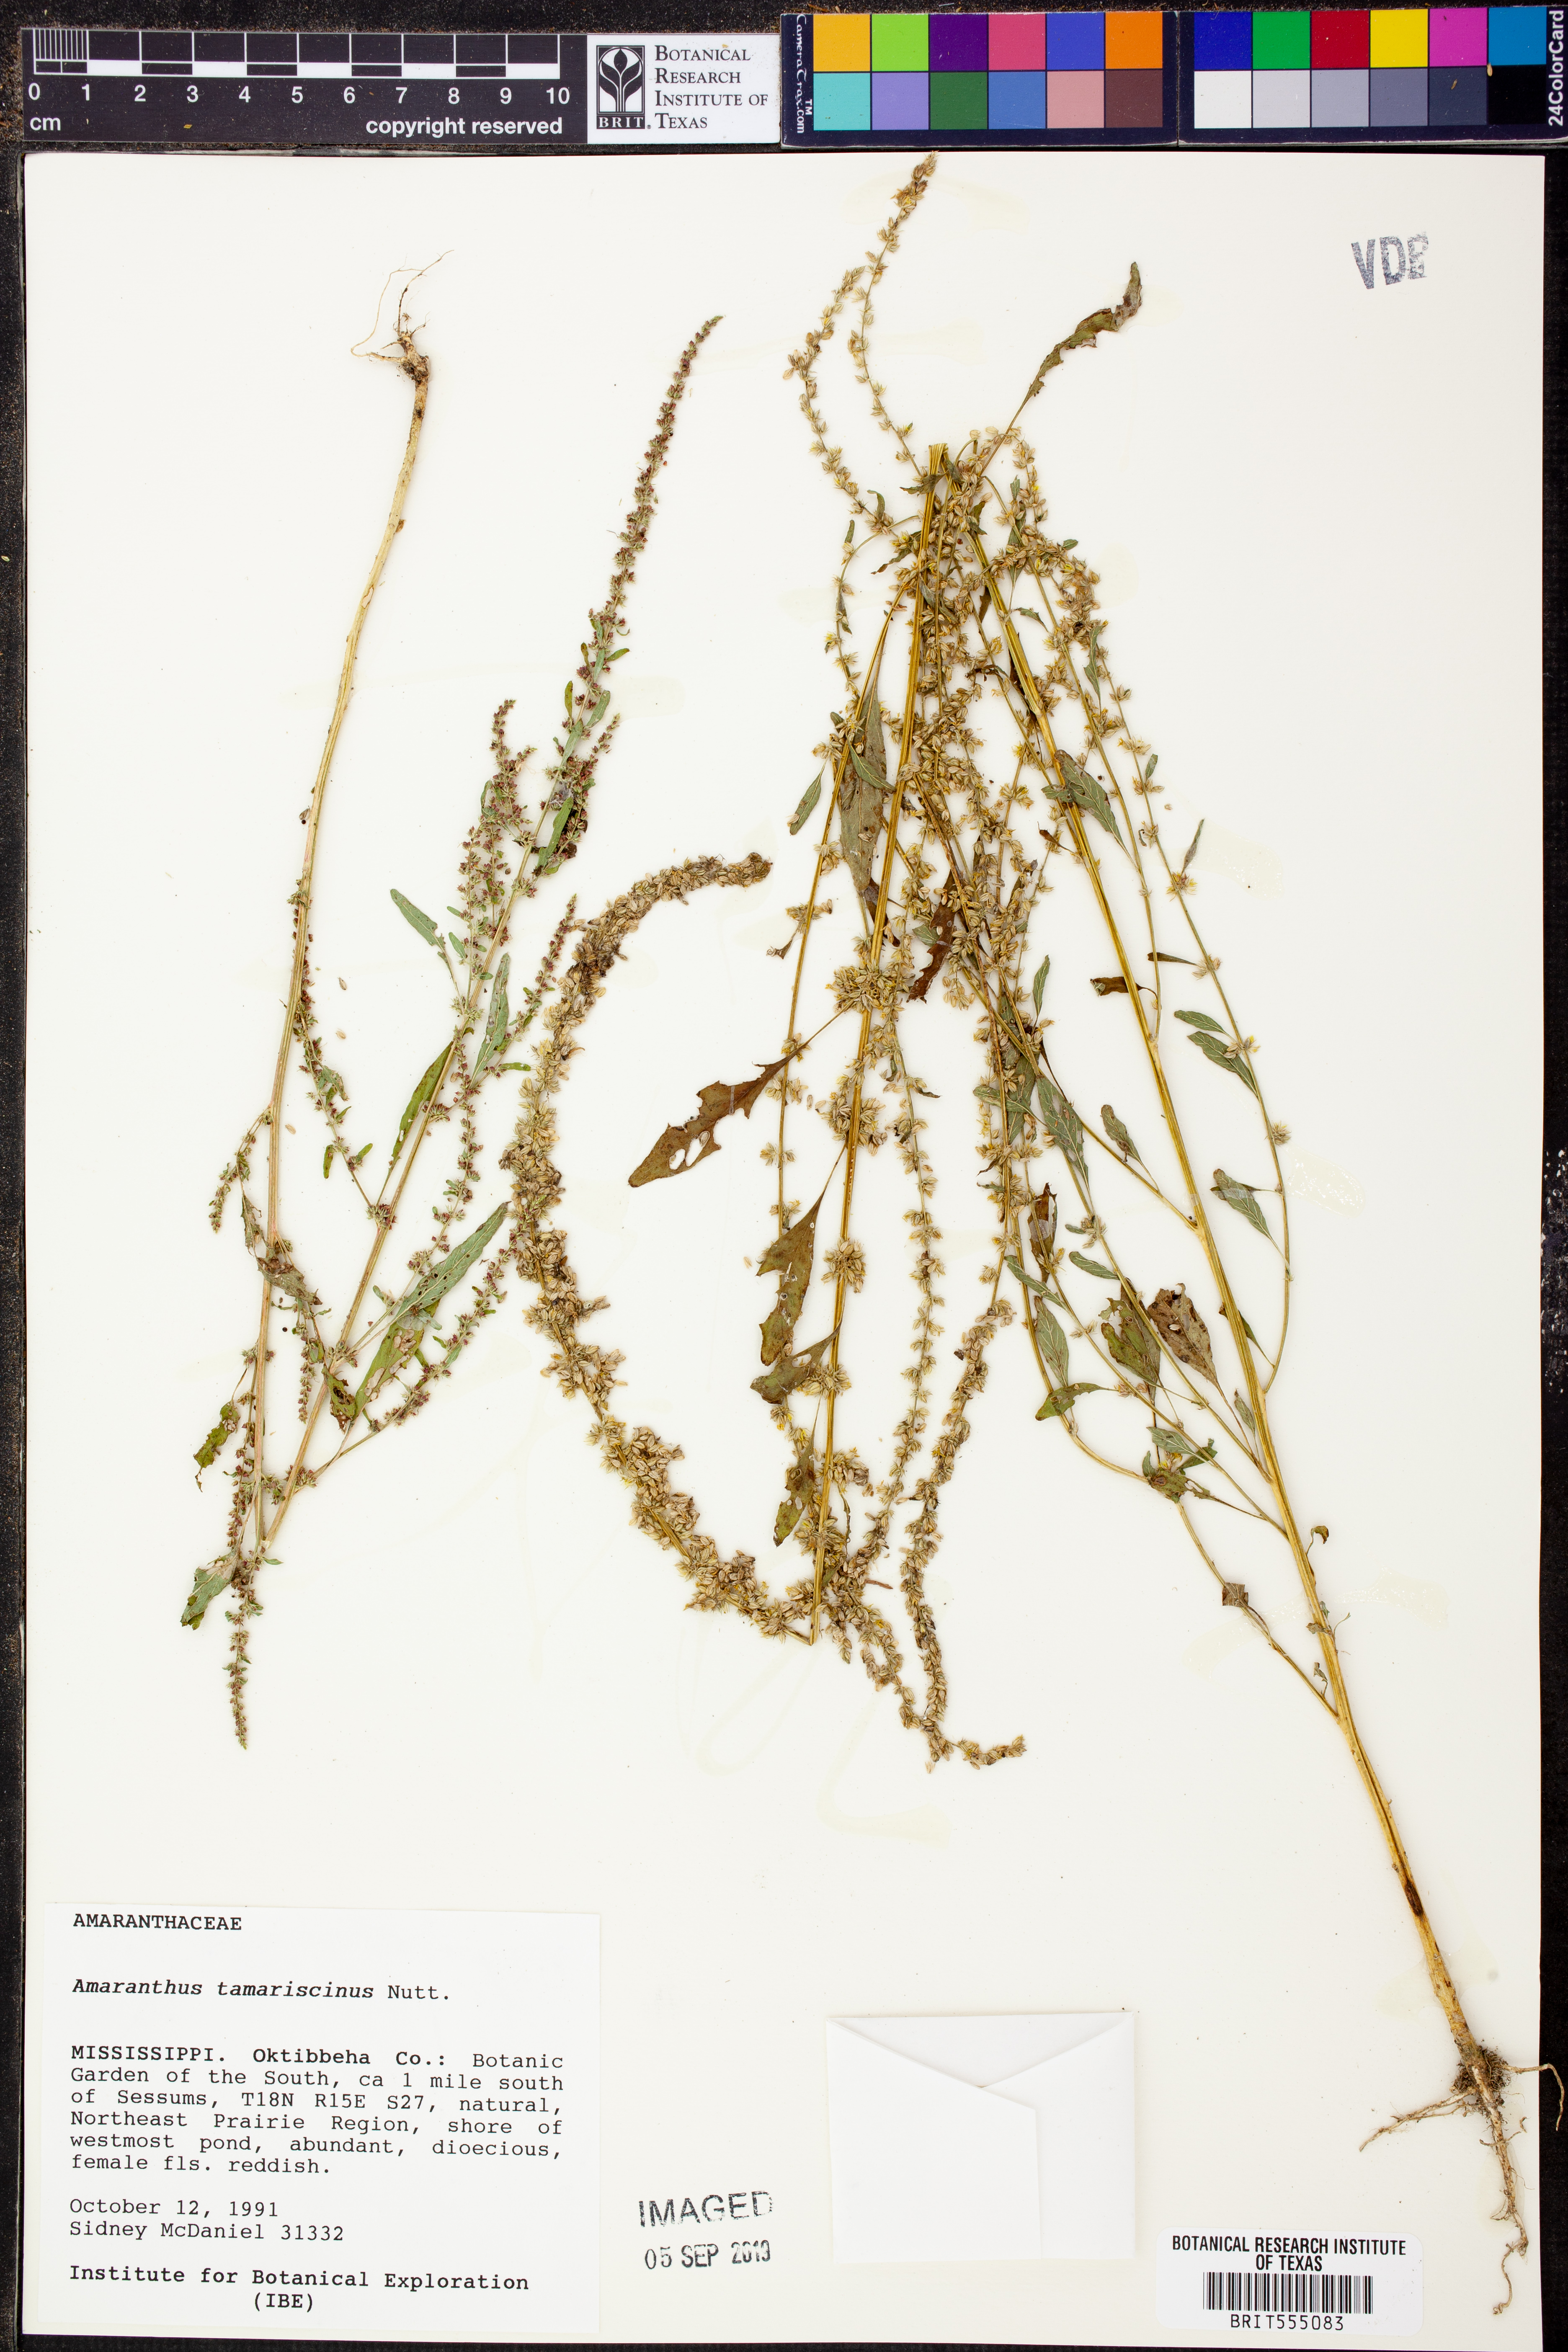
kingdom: Plantae
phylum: Tracheophyta
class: Magnoliopsida
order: Caryophyllales
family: Amaranthaceae
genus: Amaranthus
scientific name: Amaranthus tamariscinus
